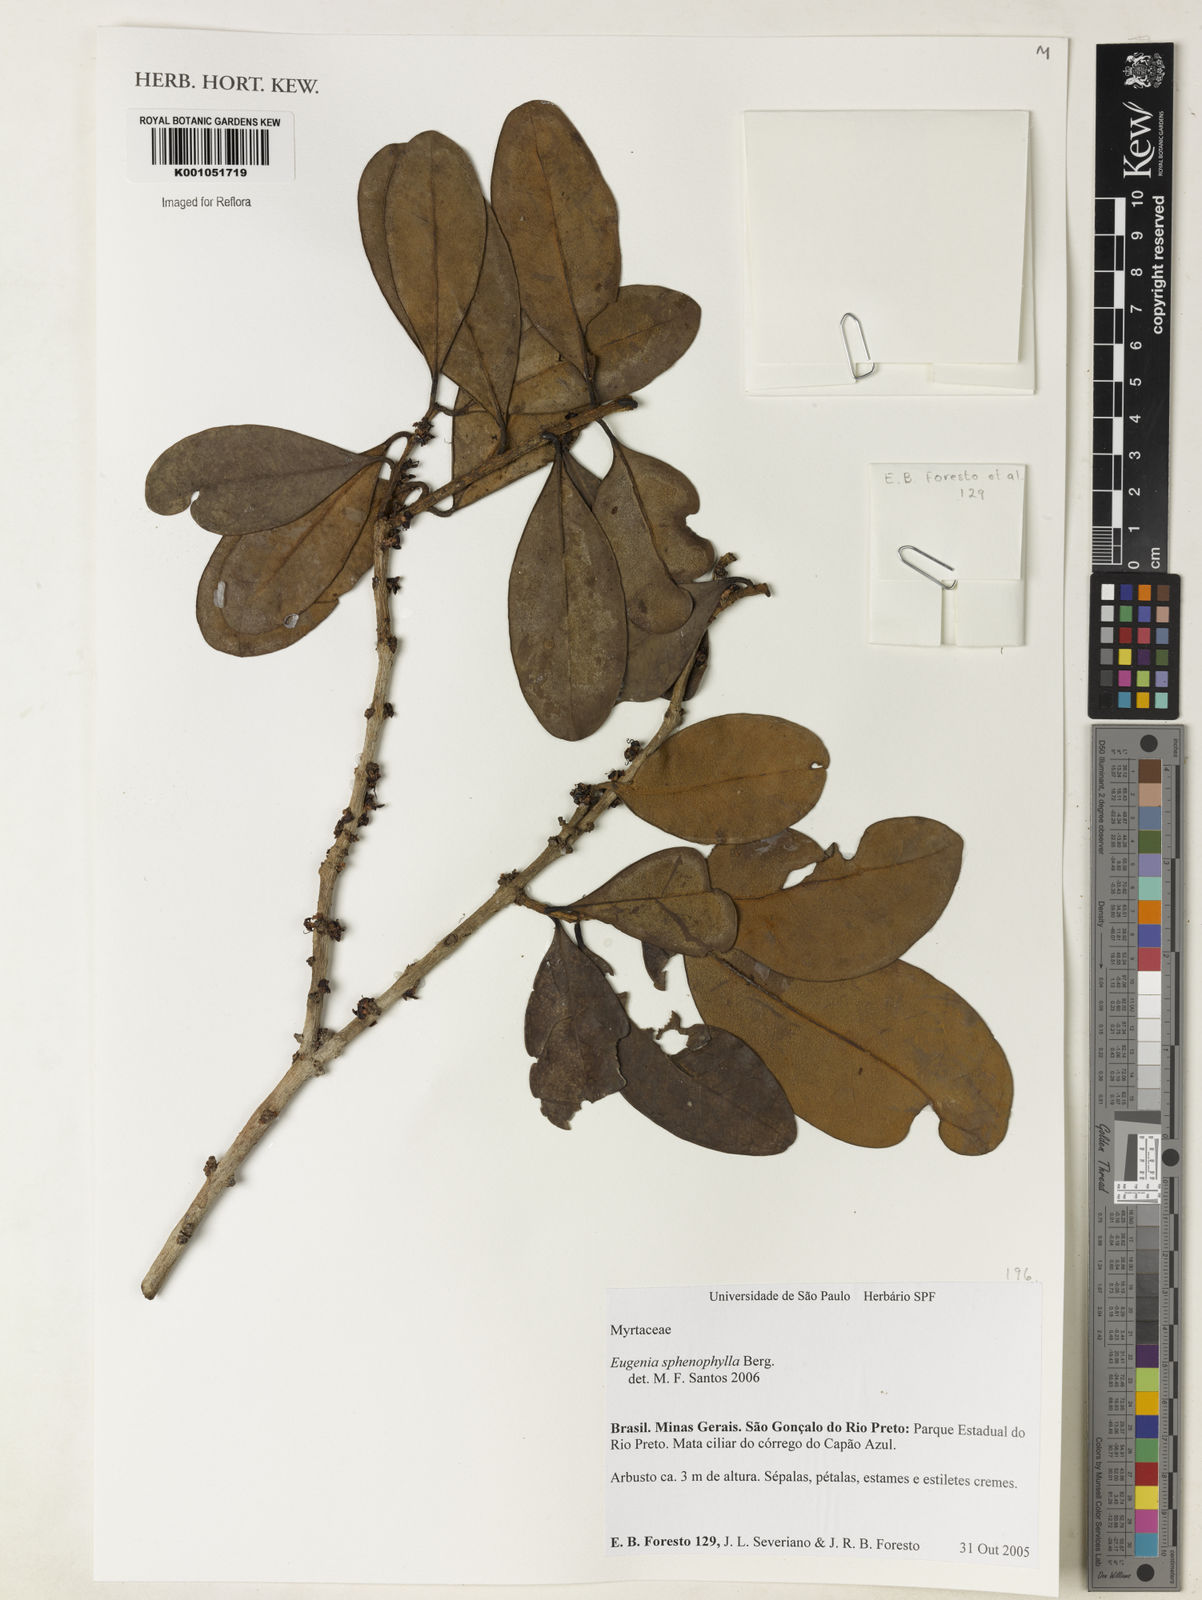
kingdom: Plantae
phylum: Tracheophyta
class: Magnoliopsida
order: Myrtales
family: Myrtaceae
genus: Eugenia
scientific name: Eugenia sphenophylla
